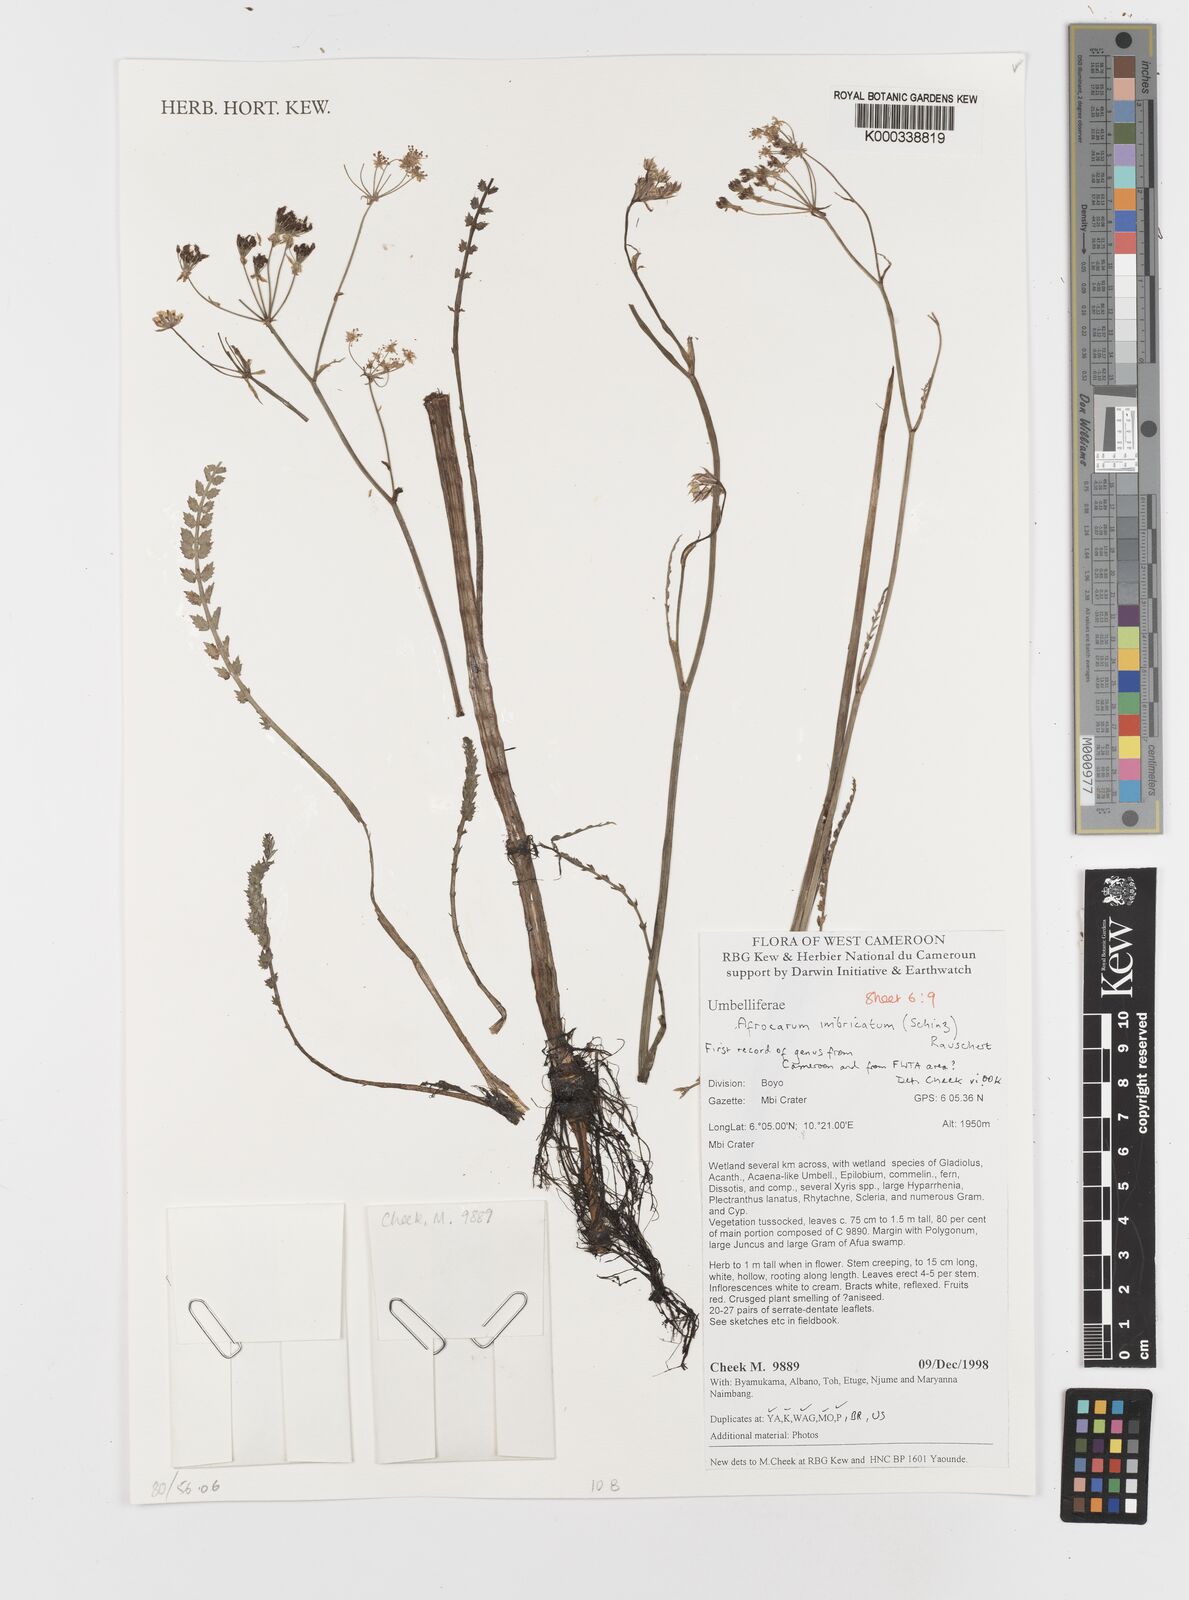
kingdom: Plantae
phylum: Tracheophyta
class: Magnoliopsida
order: Apiales
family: Apiaceae
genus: Berula
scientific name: Berula imbricata
